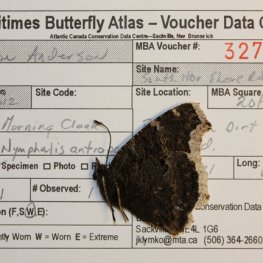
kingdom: Animalia
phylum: Arthropoda
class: Insecta
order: Lepidoptera
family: Nymphalidae
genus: Nymphalis
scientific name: Nymphalis antiopa
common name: Mourning Cloak
